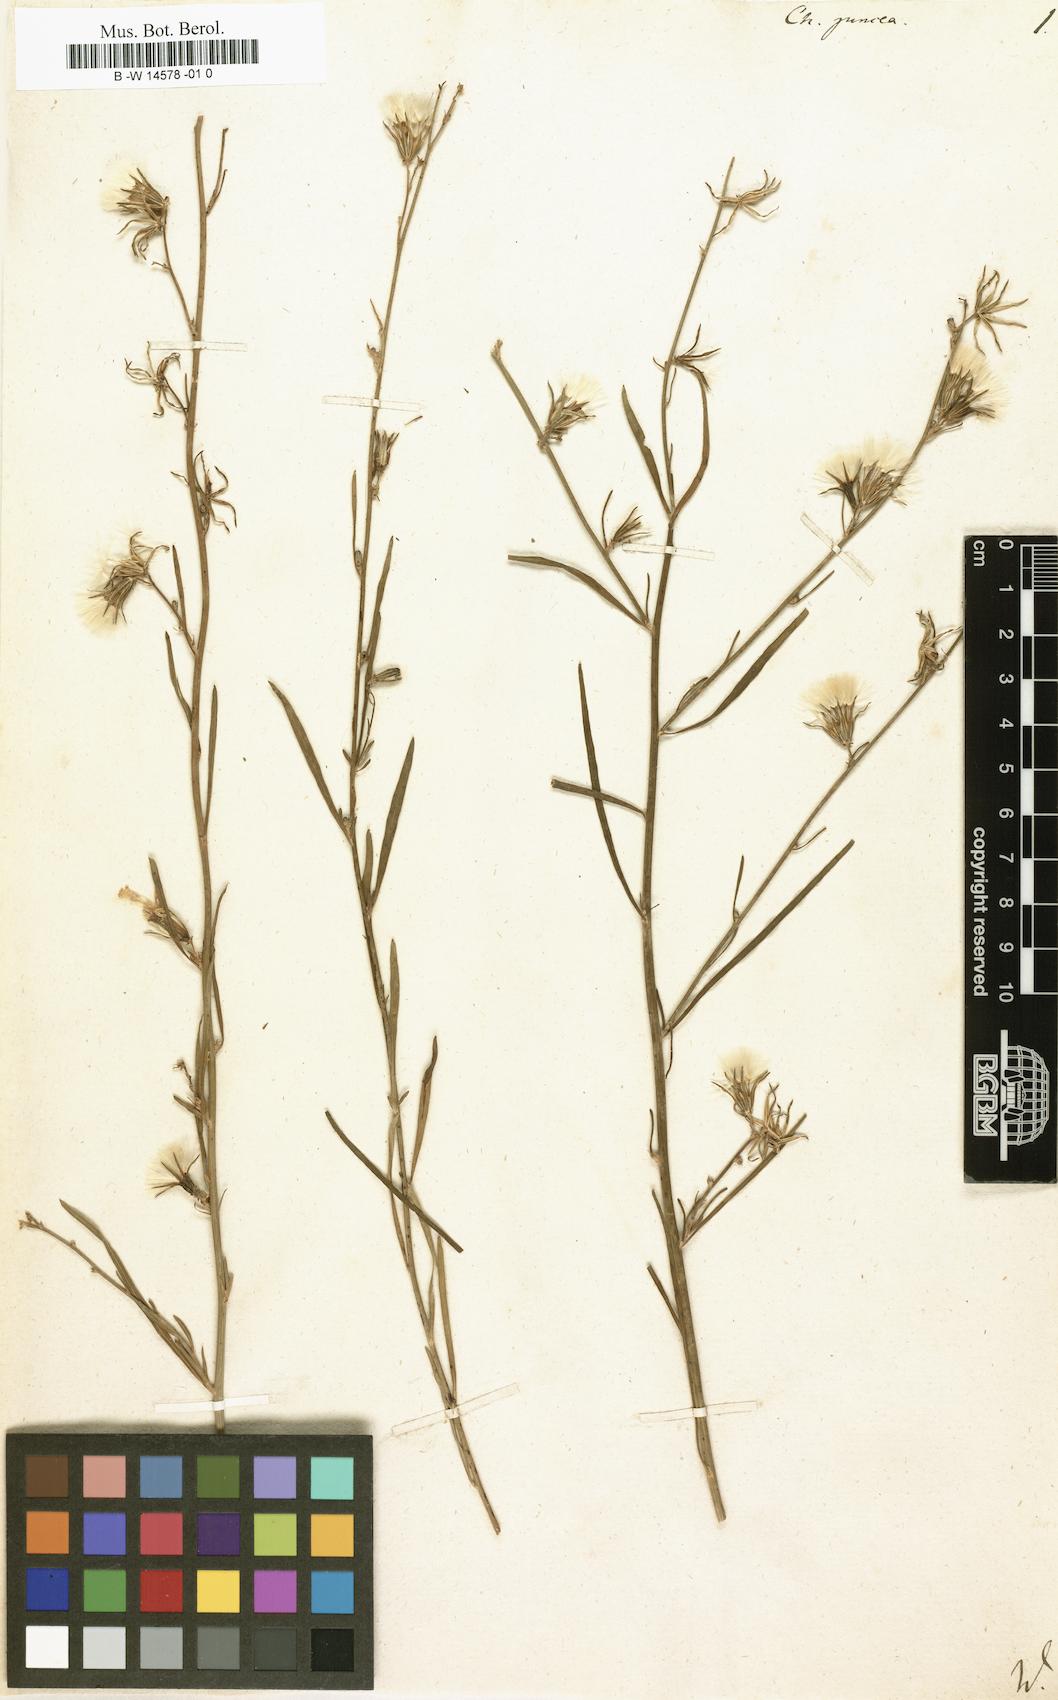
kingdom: Plantae
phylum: Tracheophyta
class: Magnoliopsida
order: Asterales
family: Asteraceae
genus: Chondrilla
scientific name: Chondrilla juncea
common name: Skeleton weed
